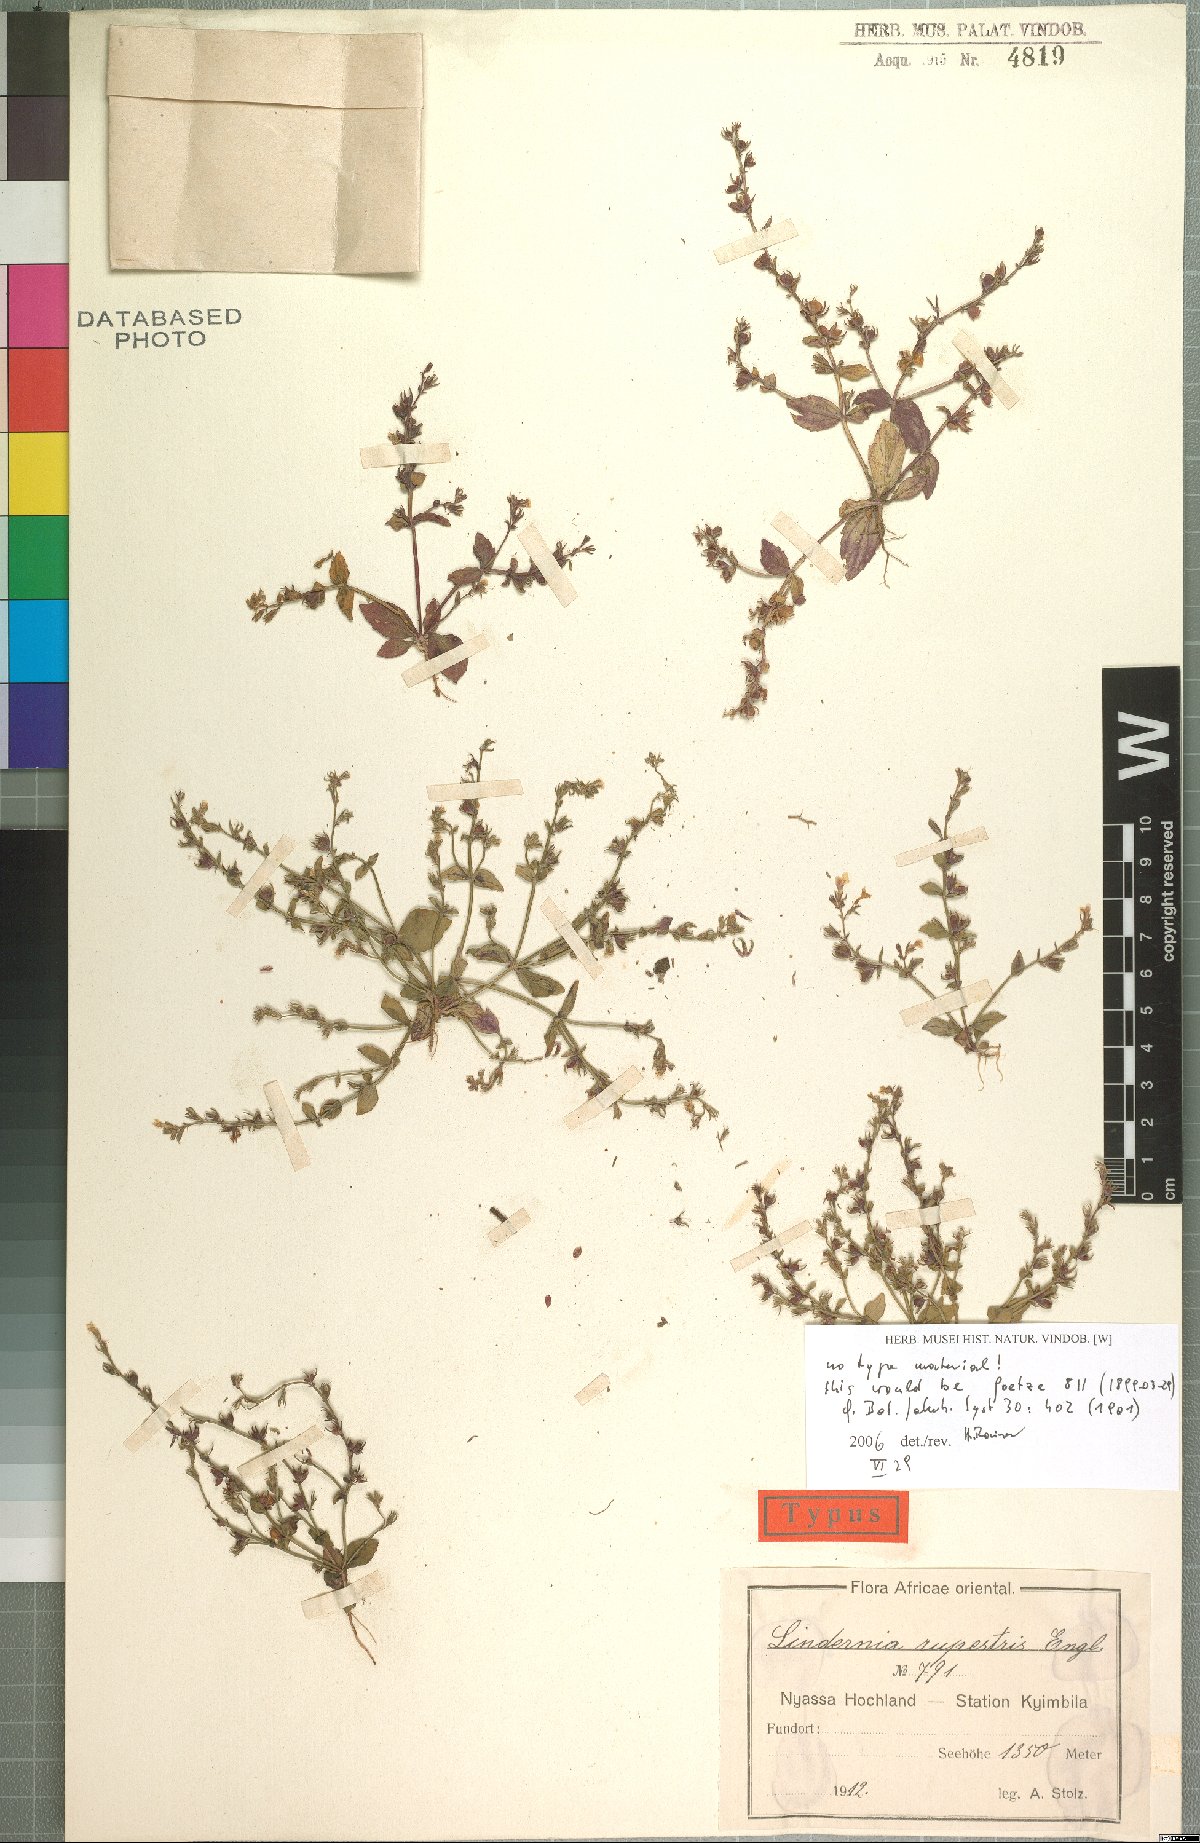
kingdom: Plantae
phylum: Tracheophyta
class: Magnoliopsida
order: Lamiales
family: Linderniaceae
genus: Crepidorhopalon
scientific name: Crepidorhopalon rupestris
